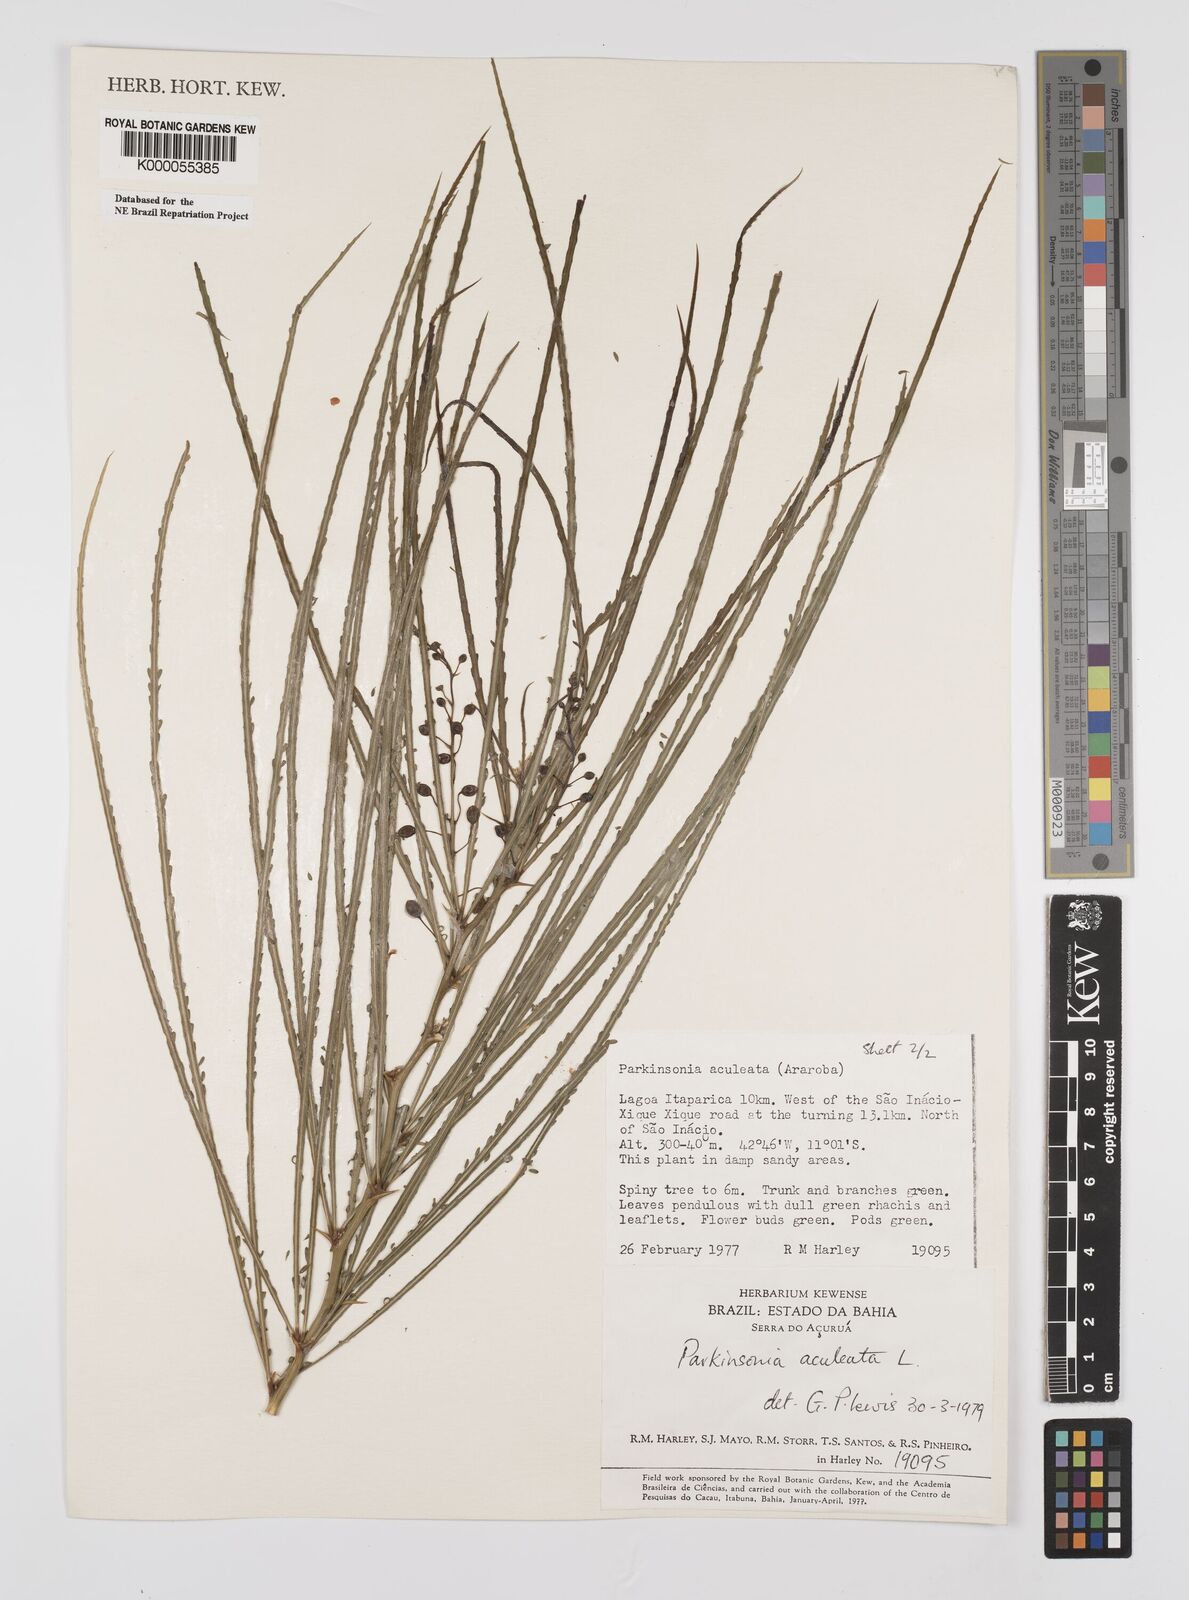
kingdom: Plantae
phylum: Tracheophyta
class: Magnoliopsida
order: Fabales
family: Fabaceae
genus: Parkinsonia
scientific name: Parkinsonia aculeata
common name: Jerusalem thorn
